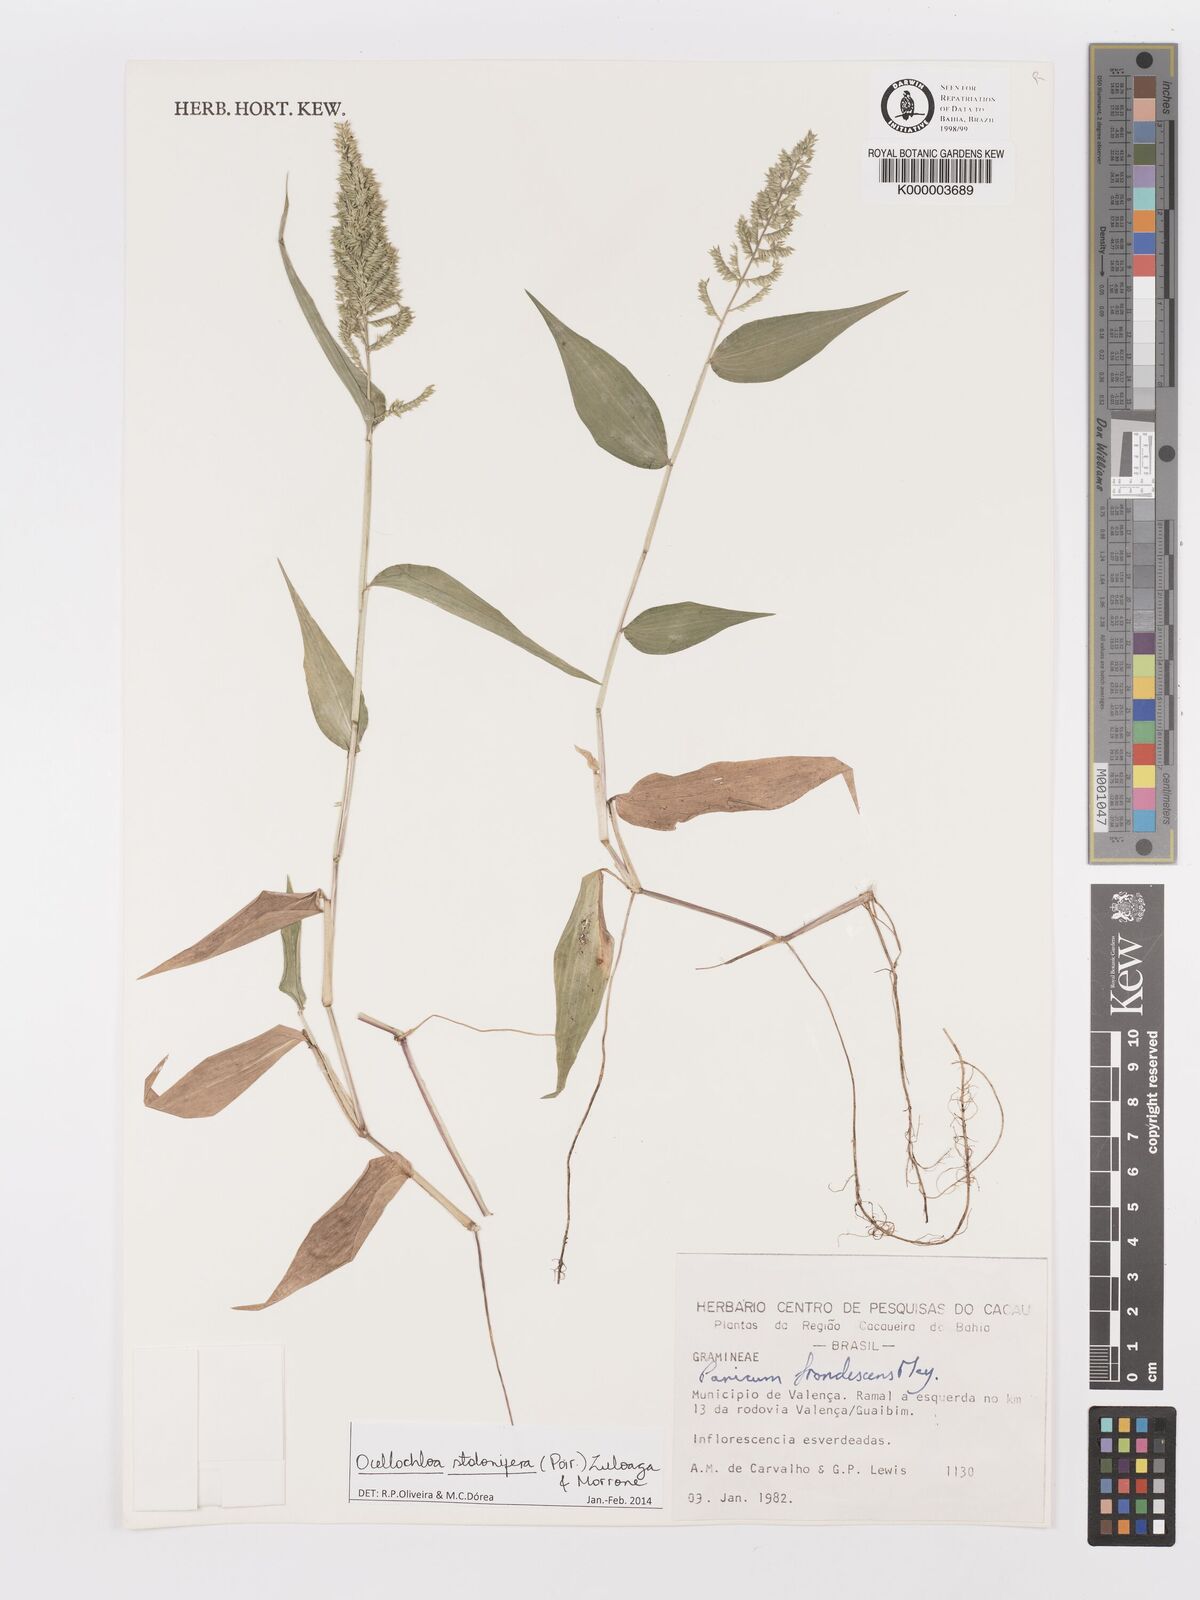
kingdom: Plantae
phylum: Tracheophyta
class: Liliopsida
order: Poales
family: Poaceae
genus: Ocellochloa
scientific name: Ocellochloa stolonifera
